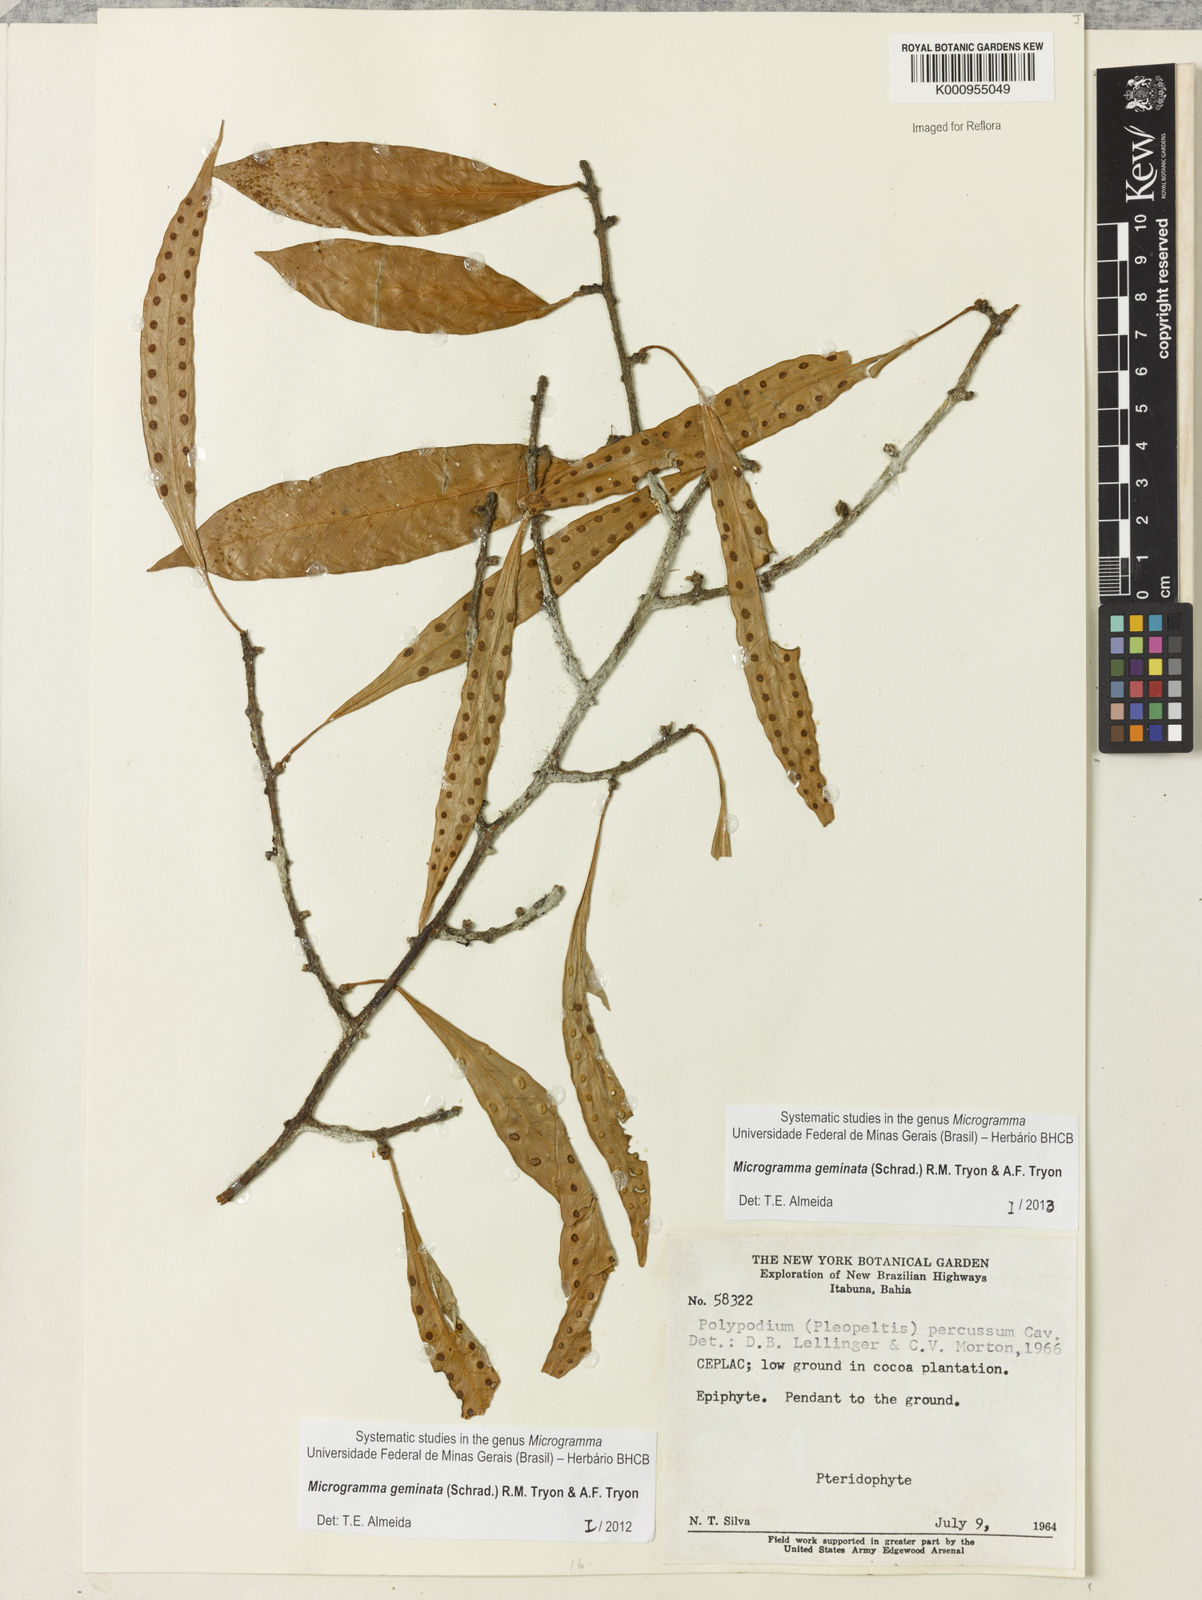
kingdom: Plantae
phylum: Tracheophyta
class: Polypodiopsida
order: Polypodiales
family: Polypodiaceae
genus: Microgramma
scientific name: Microgramma geminata
